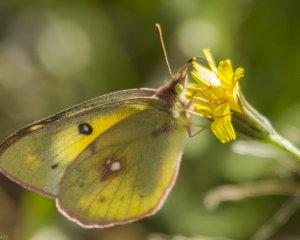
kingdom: Animalia
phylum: Arthropoda
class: Insecta
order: Lepidoptera
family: Pieridae
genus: Colias
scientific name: Colias philodice
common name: Clouded Sulphur
